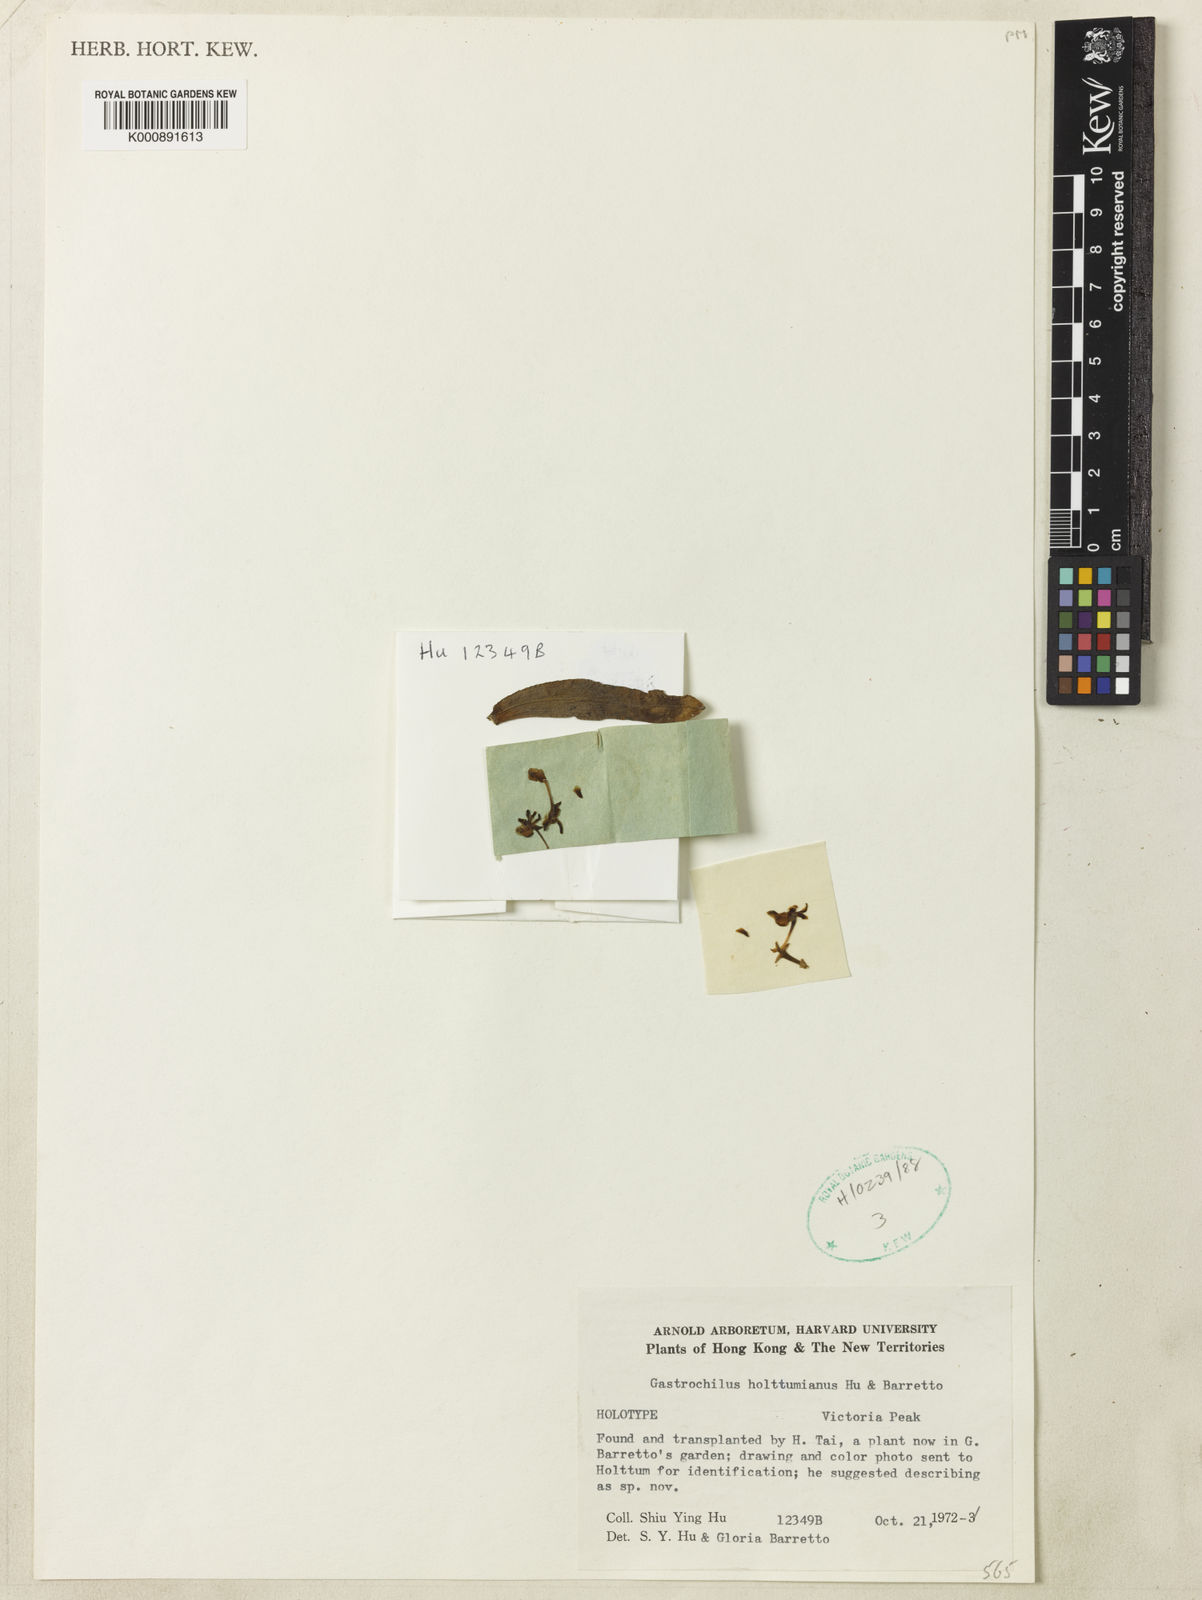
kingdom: Plantae
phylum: Tracheophyta
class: Liliopsida
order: Asparagales
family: Orchidaceae
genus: Gastrochilus
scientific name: Gastrochilus japonicus
